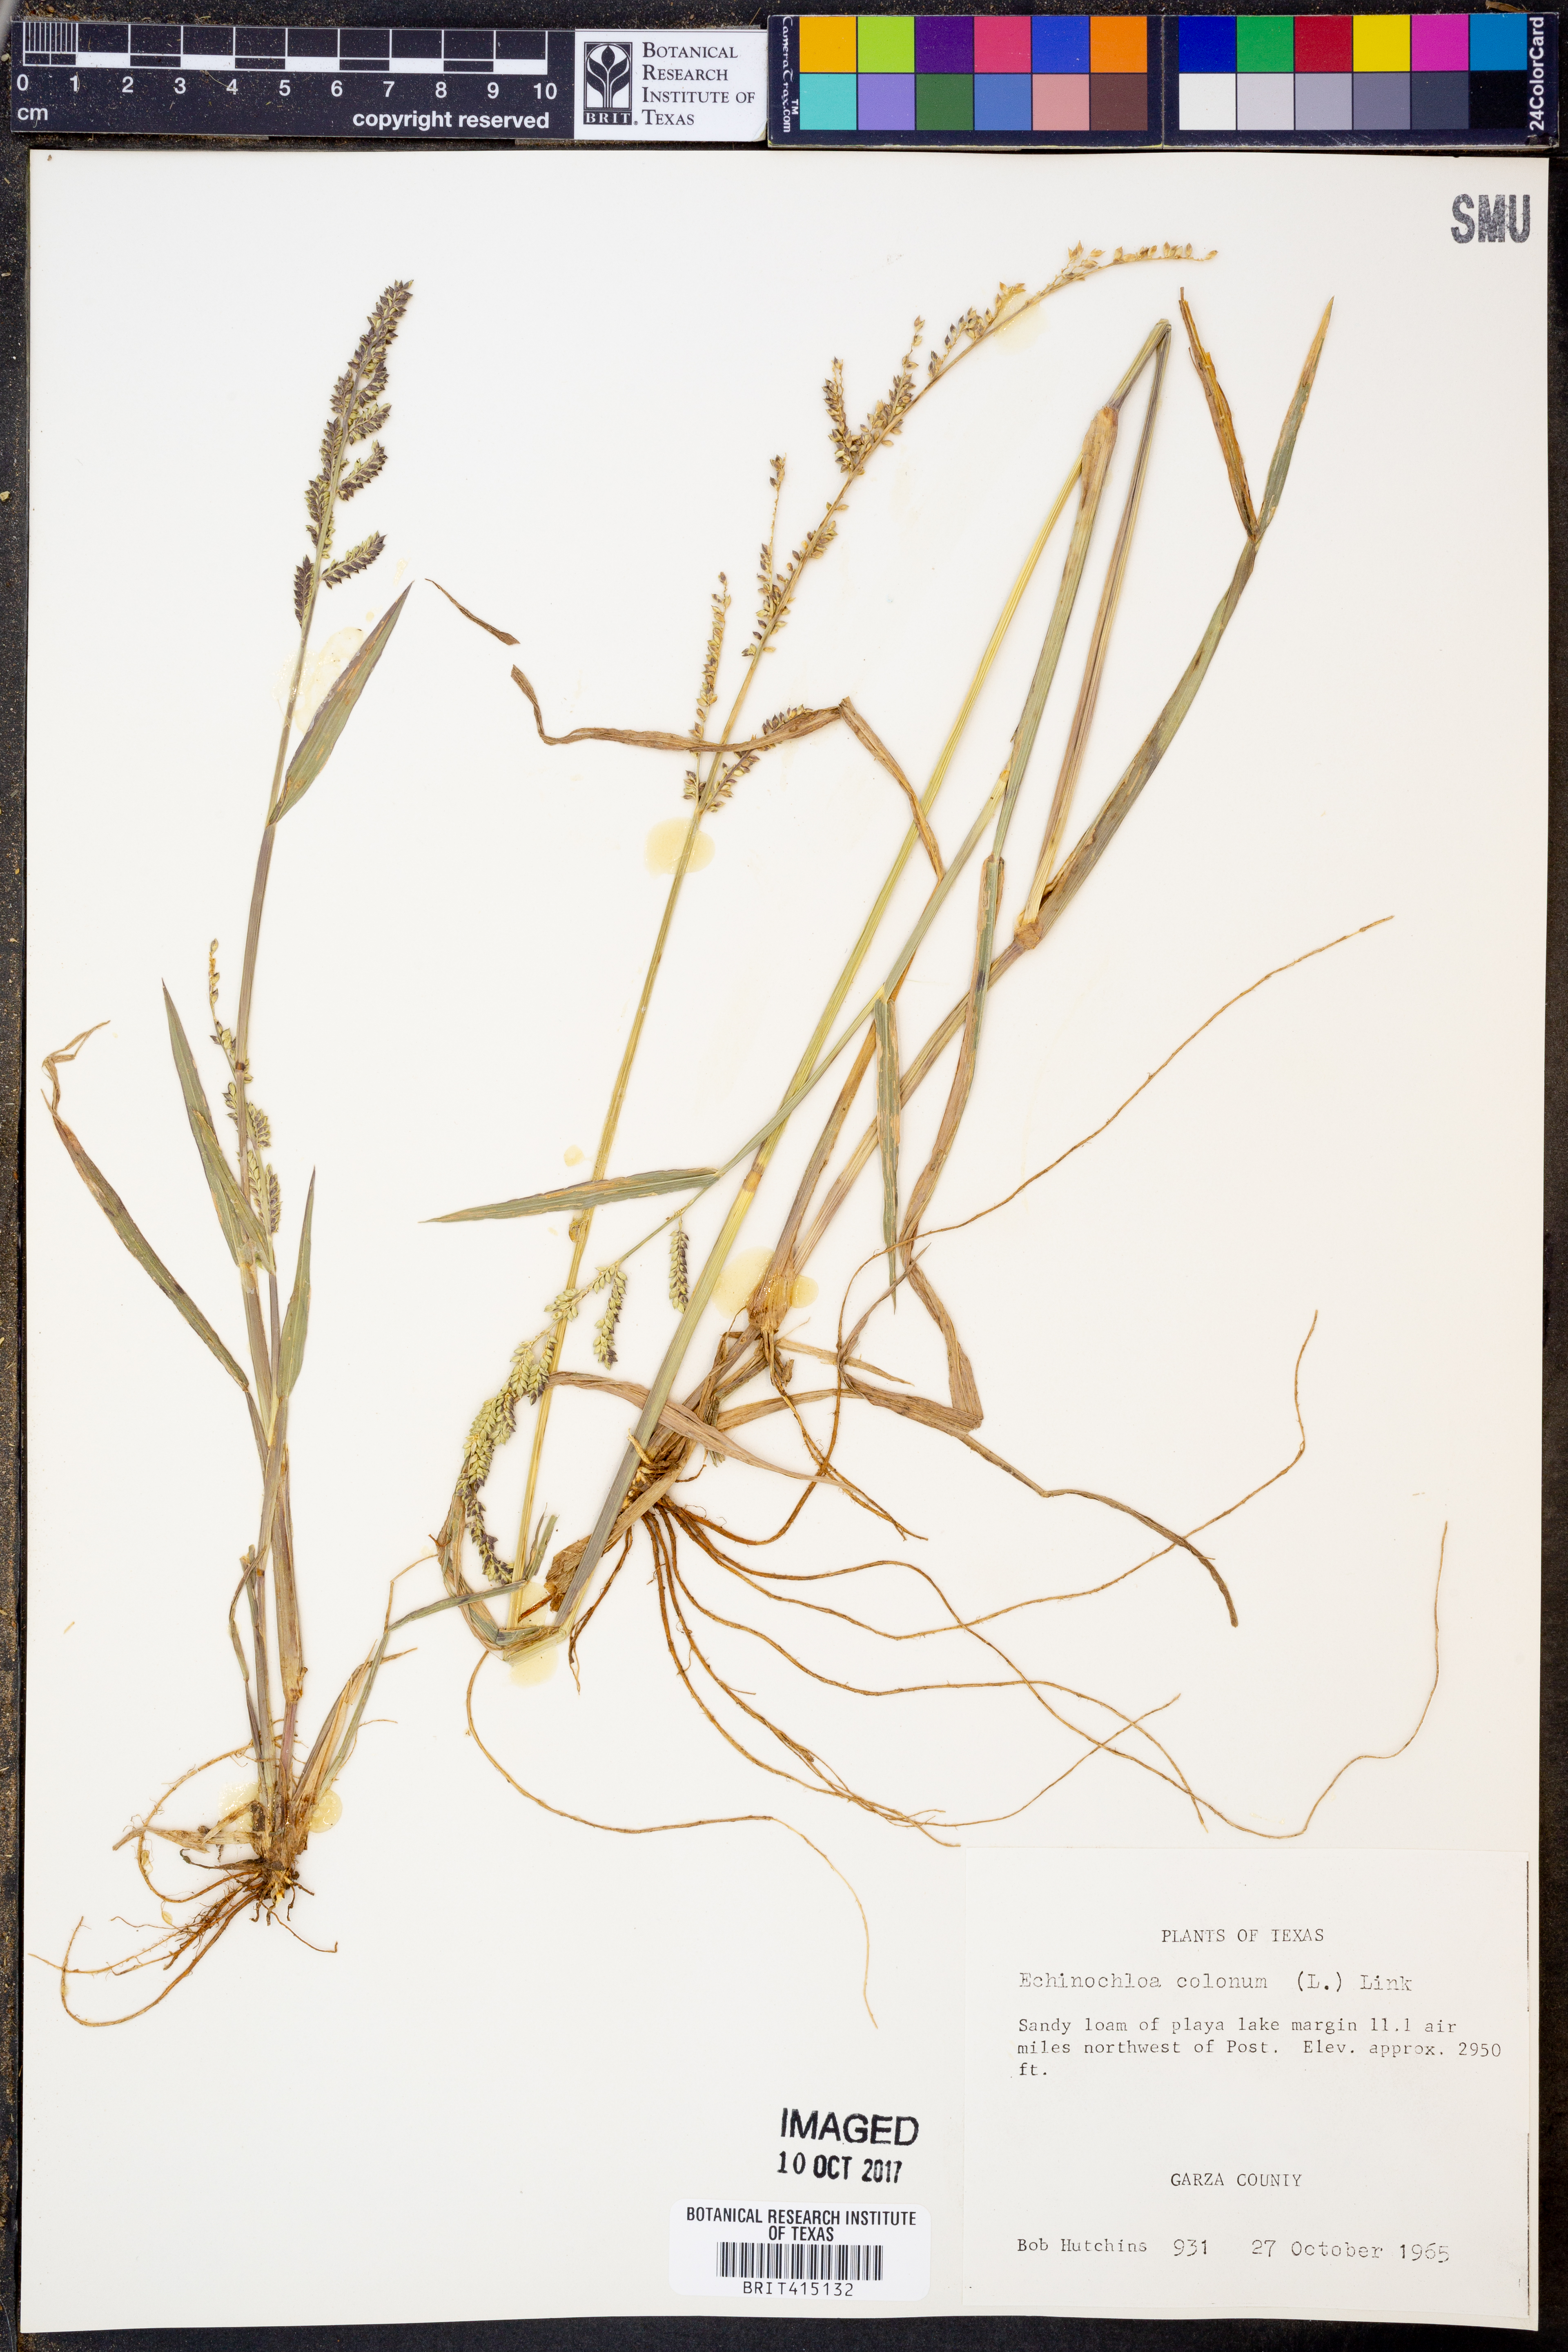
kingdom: Plantae
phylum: Tracheophyta
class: Liliopsida
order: Poales
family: Poaceae
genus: Echinochloa
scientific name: Echinochloa colonum
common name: Jungle rice
